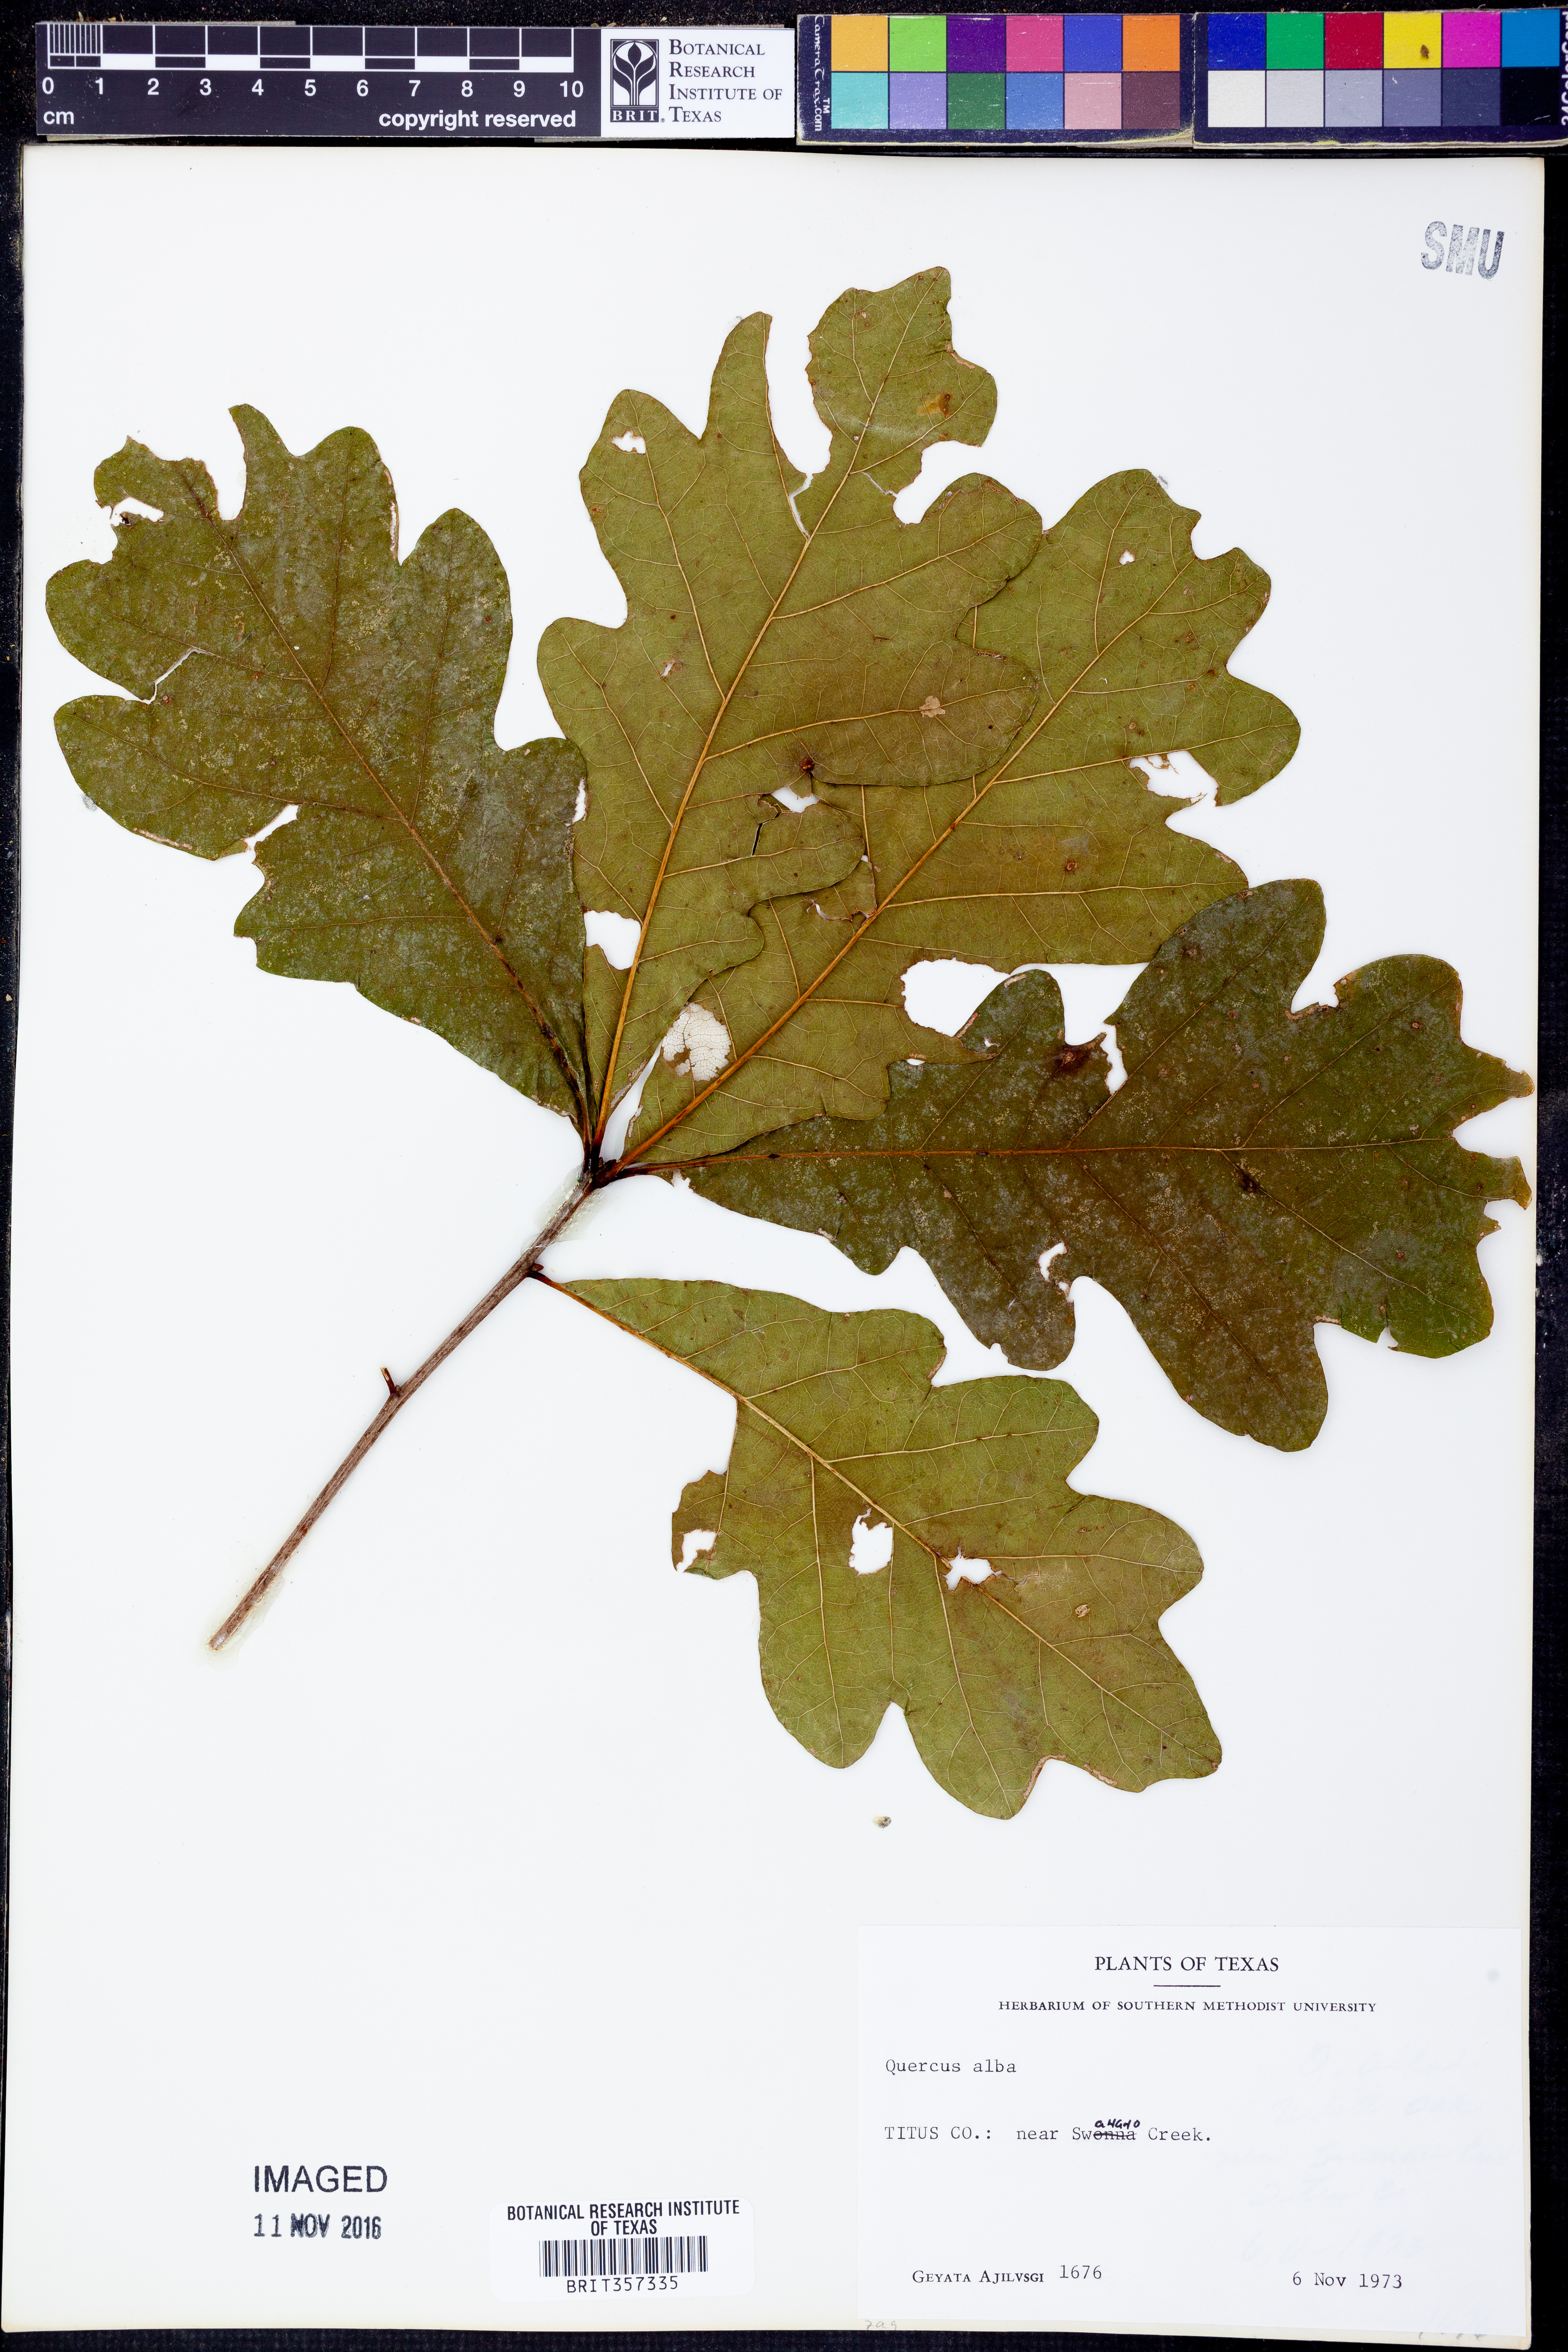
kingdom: Plantae
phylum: Tracheophyta
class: Magnoliopsida
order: Fagales
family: Fagaceae
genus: Quercus
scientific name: Quercus alba
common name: White oak
